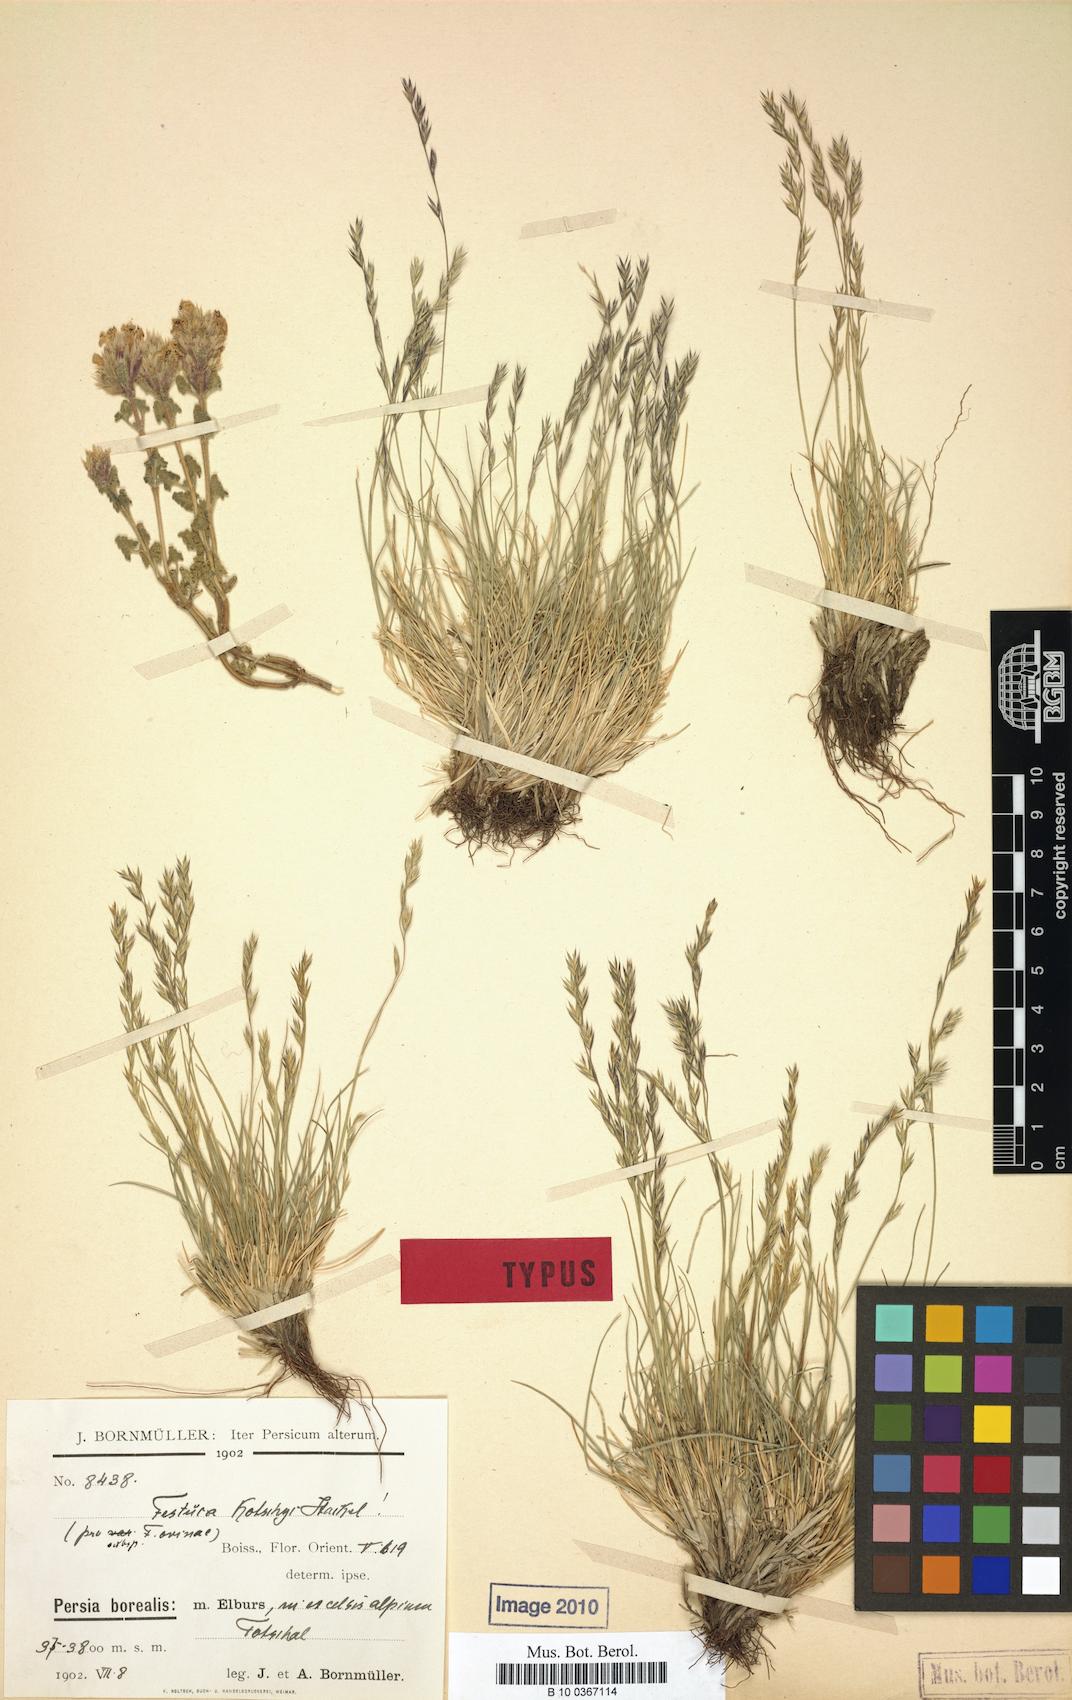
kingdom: Plantae
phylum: Tracheophyta
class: Liliopsida
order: Poales
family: Poaceae
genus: Festuca
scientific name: Festuca alaica
